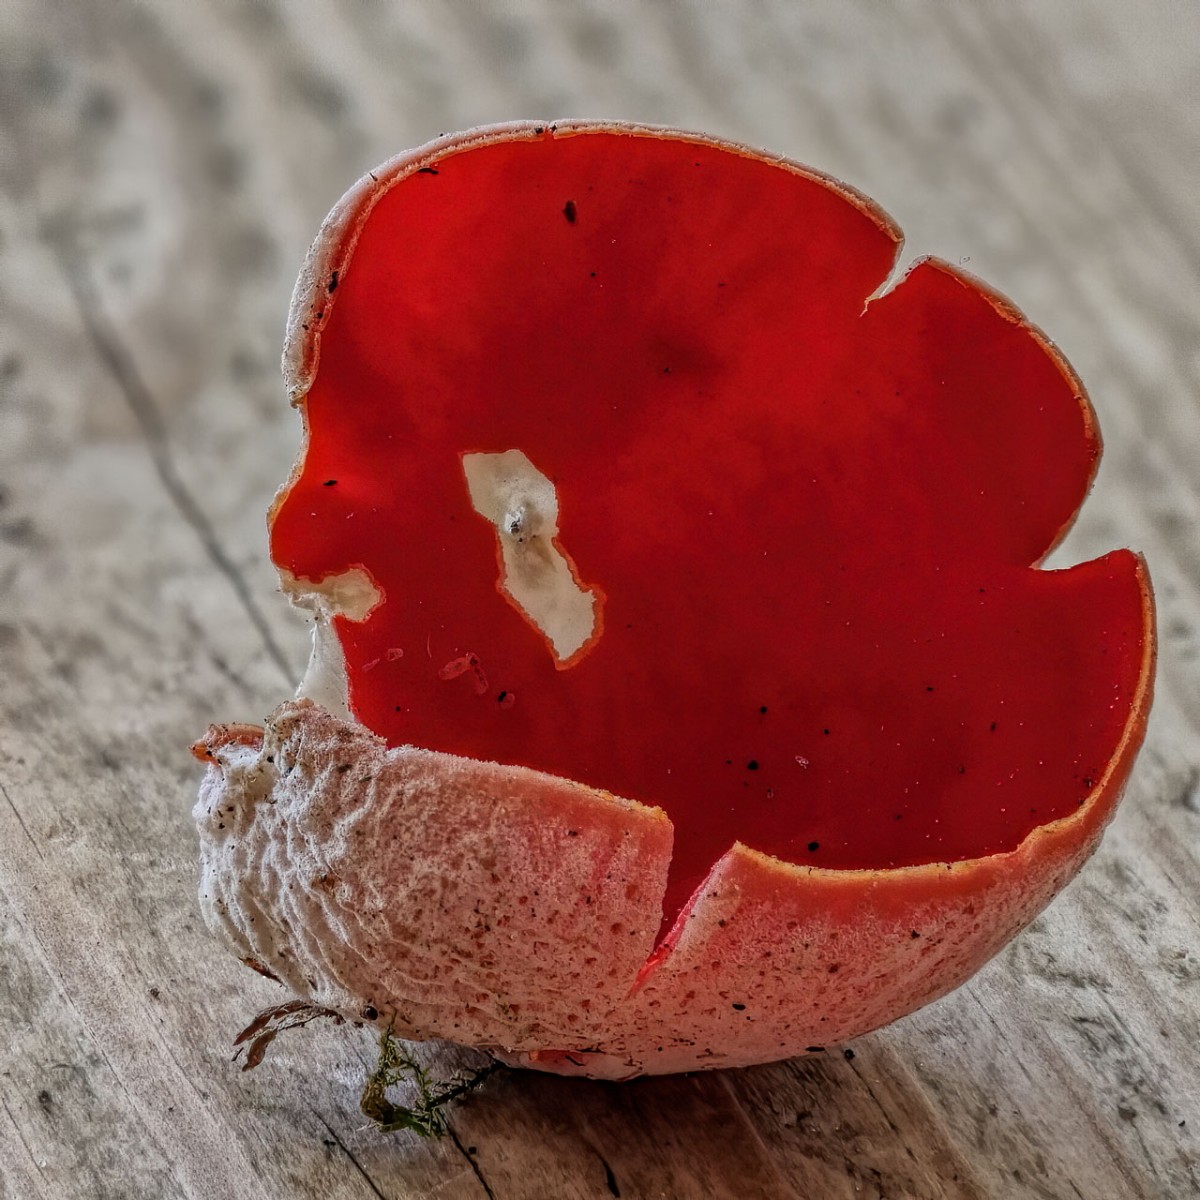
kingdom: Fungi
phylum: Ascomycota
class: Pezizomycetes
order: Pezizales
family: Sarcoscyphaceae
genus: Sarcoscypha
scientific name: Sarcoscypha austriaca
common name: krølhåret pragtbæger
